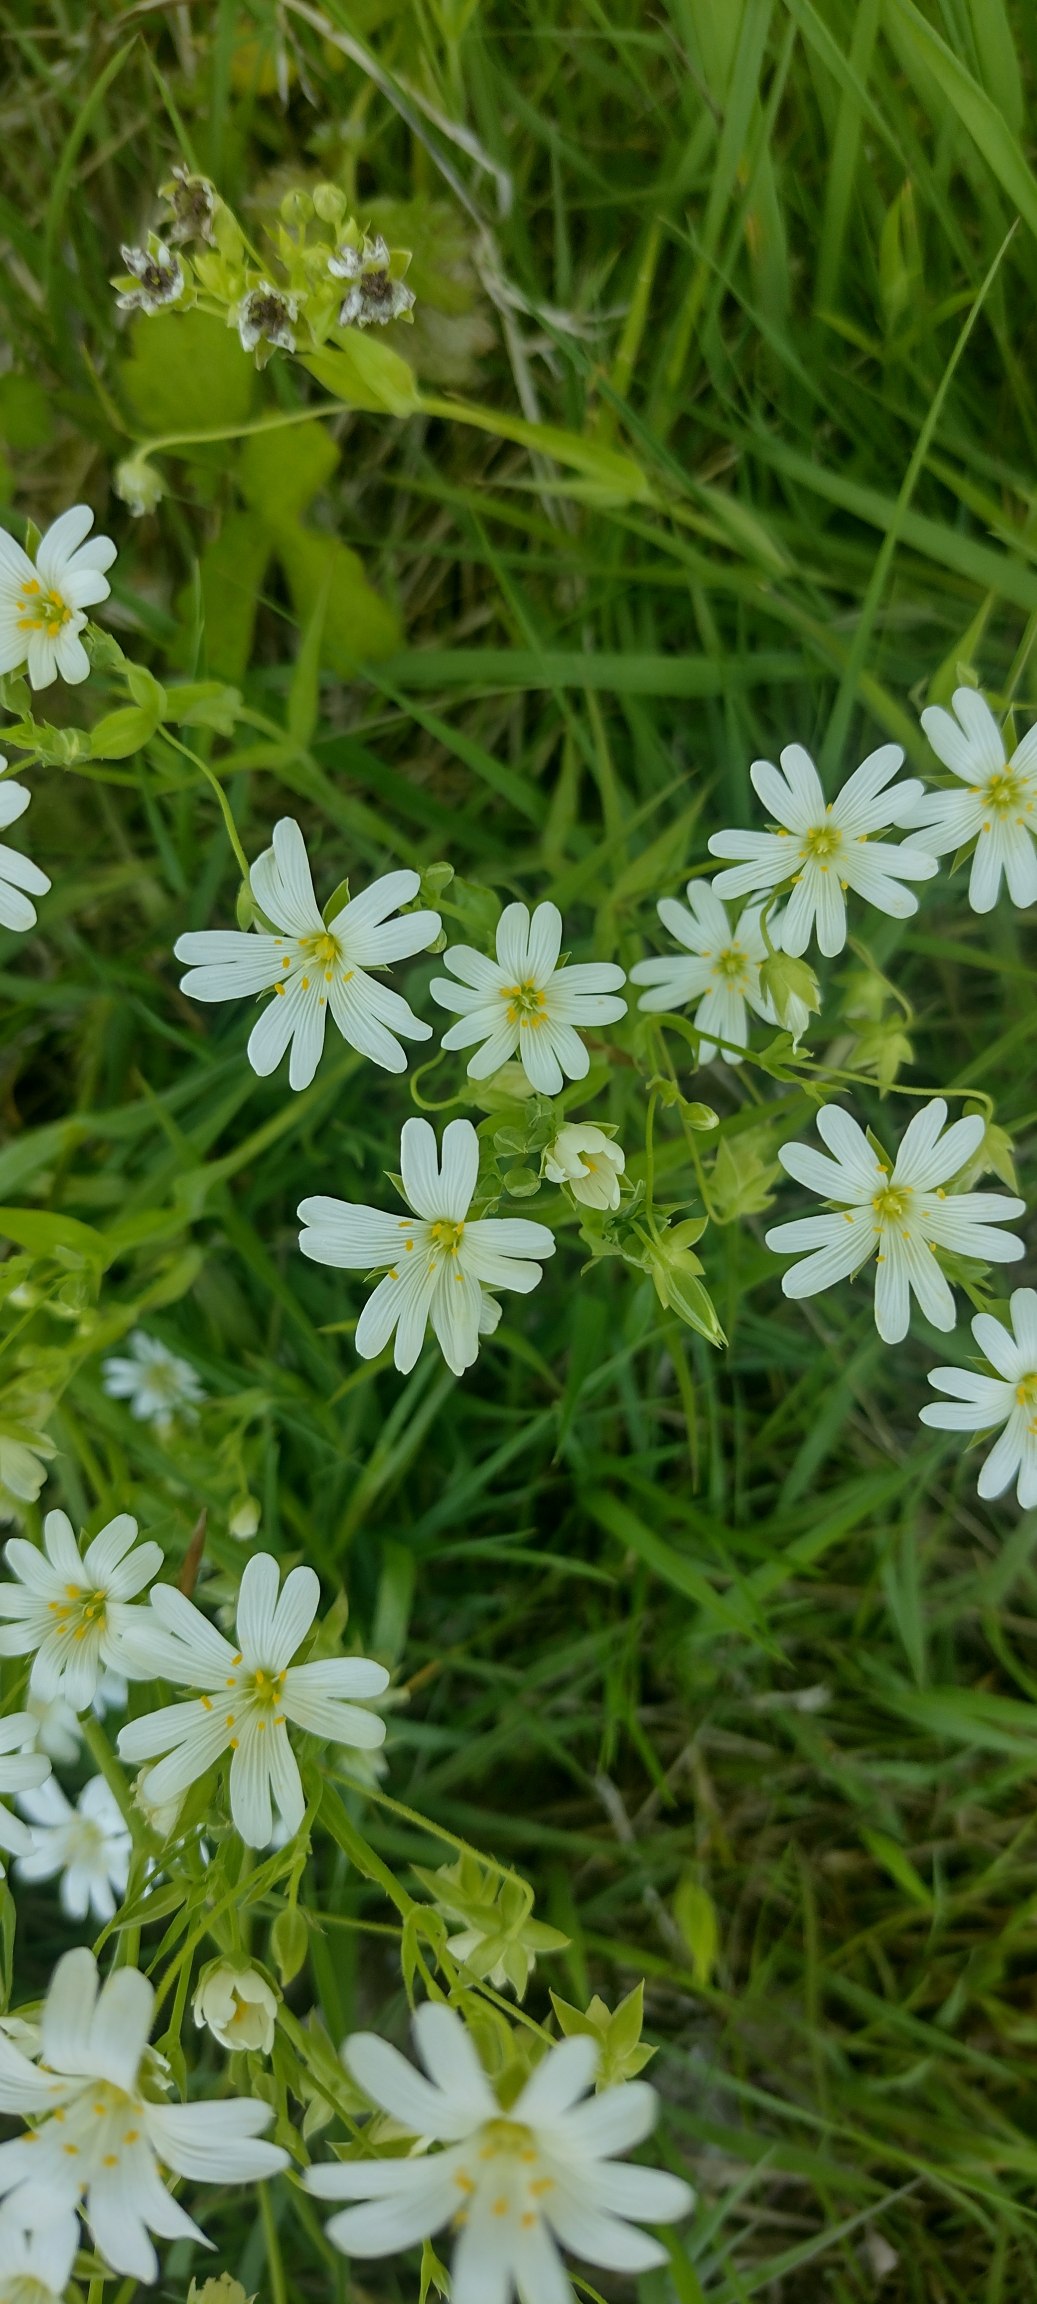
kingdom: Plantae
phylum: Tracheophyta
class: Magnoliopsida
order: Caryophyllales
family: Caryophyllaceae
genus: Rabelera
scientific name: Rabelera holostea
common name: Stor fladstjerne
